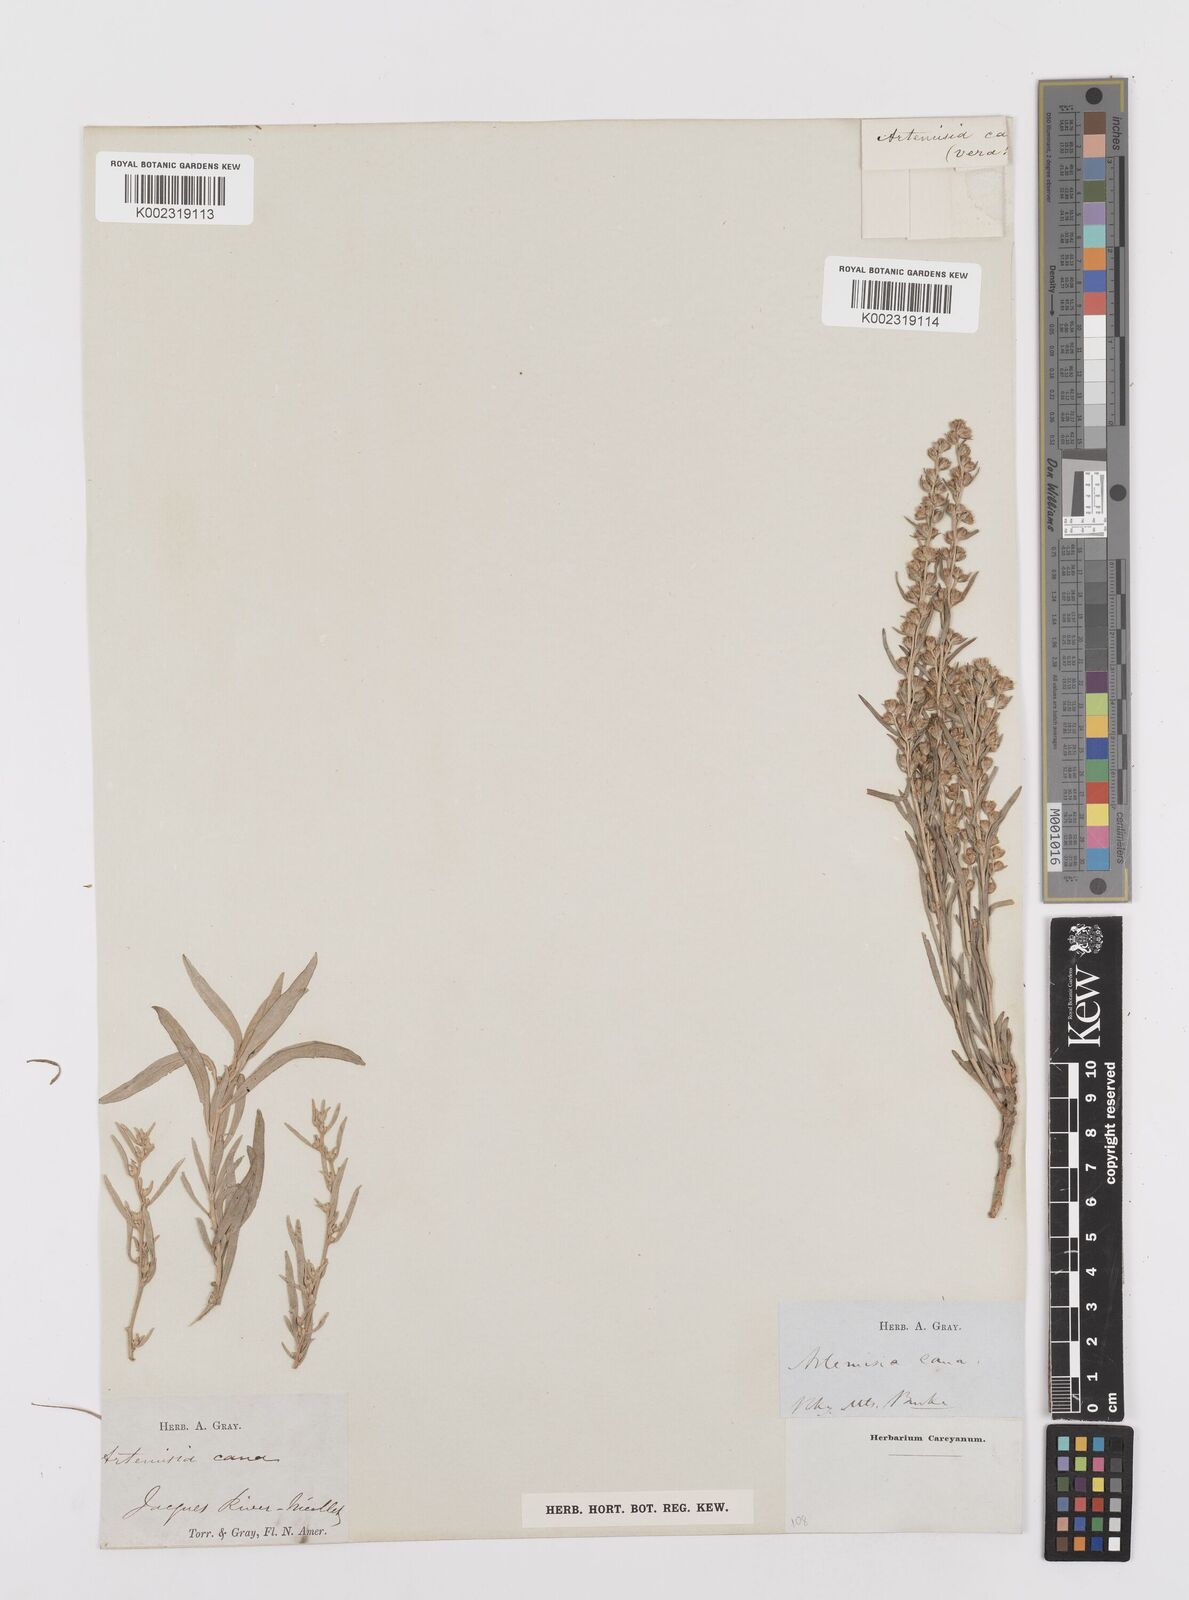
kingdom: Plantae
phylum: Tracheophyta
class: Magnoliopsida
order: Asterales
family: Asteraceae
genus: Artemisia
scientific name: Artemisia cana
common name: Silver sagebrush
